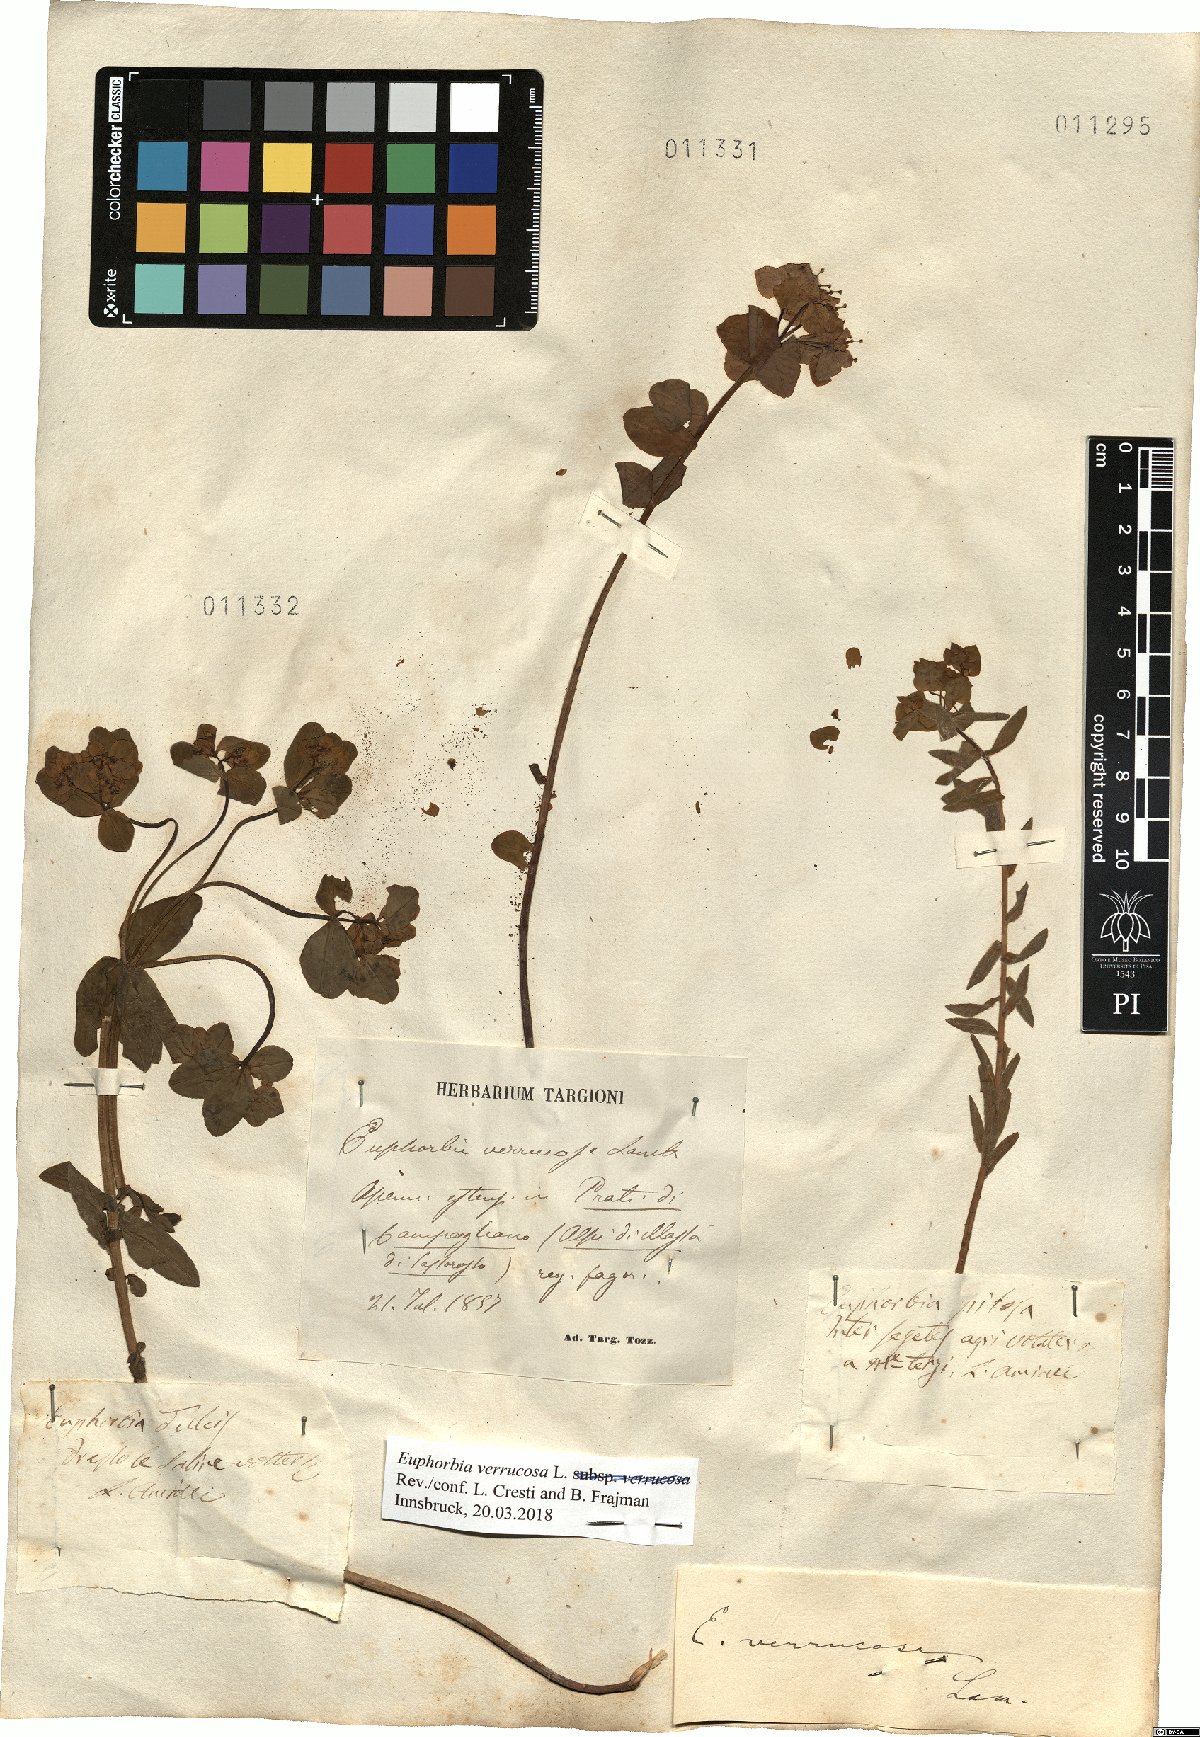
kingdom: Plantae
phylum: Tracheophyta
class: Magnoliopsida
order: Malpighiales
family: Euphorbiaceae
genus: Euphorbia
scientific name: Euphorbia verrucosa
